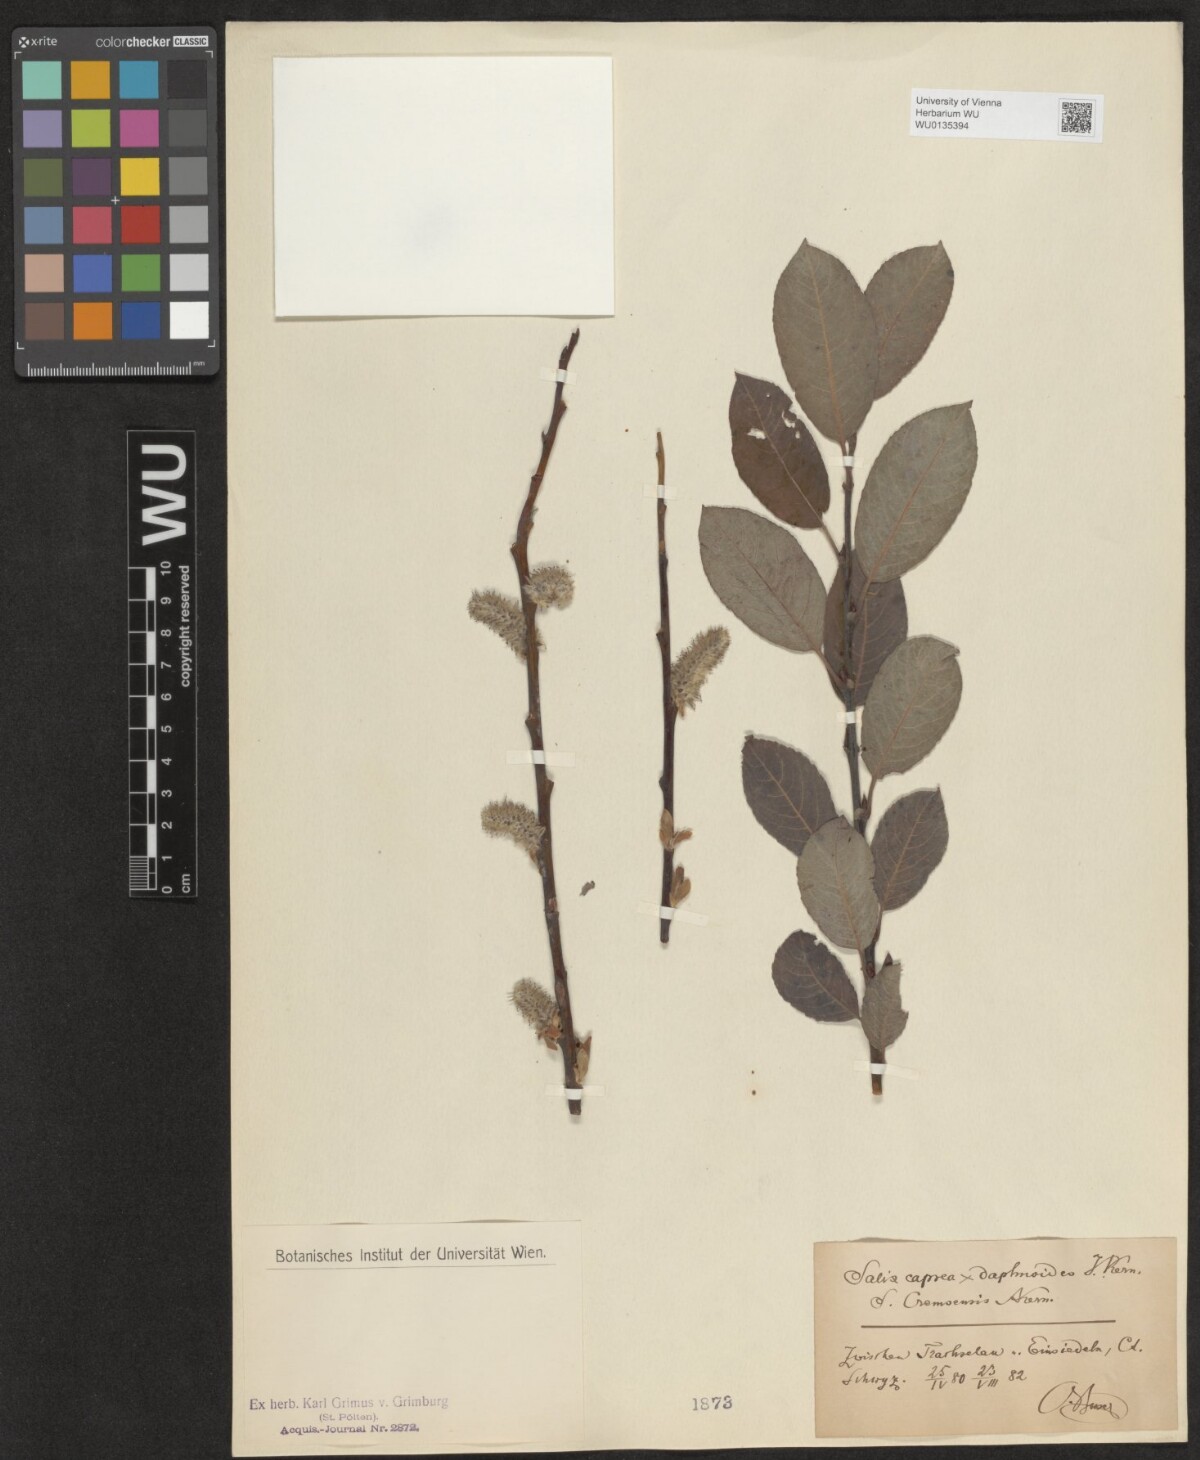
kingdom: Plantae
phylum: Tracheophyta
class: Magnoliopsida
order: Malpighiales
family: Salicaceae
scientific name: Salicaceae
